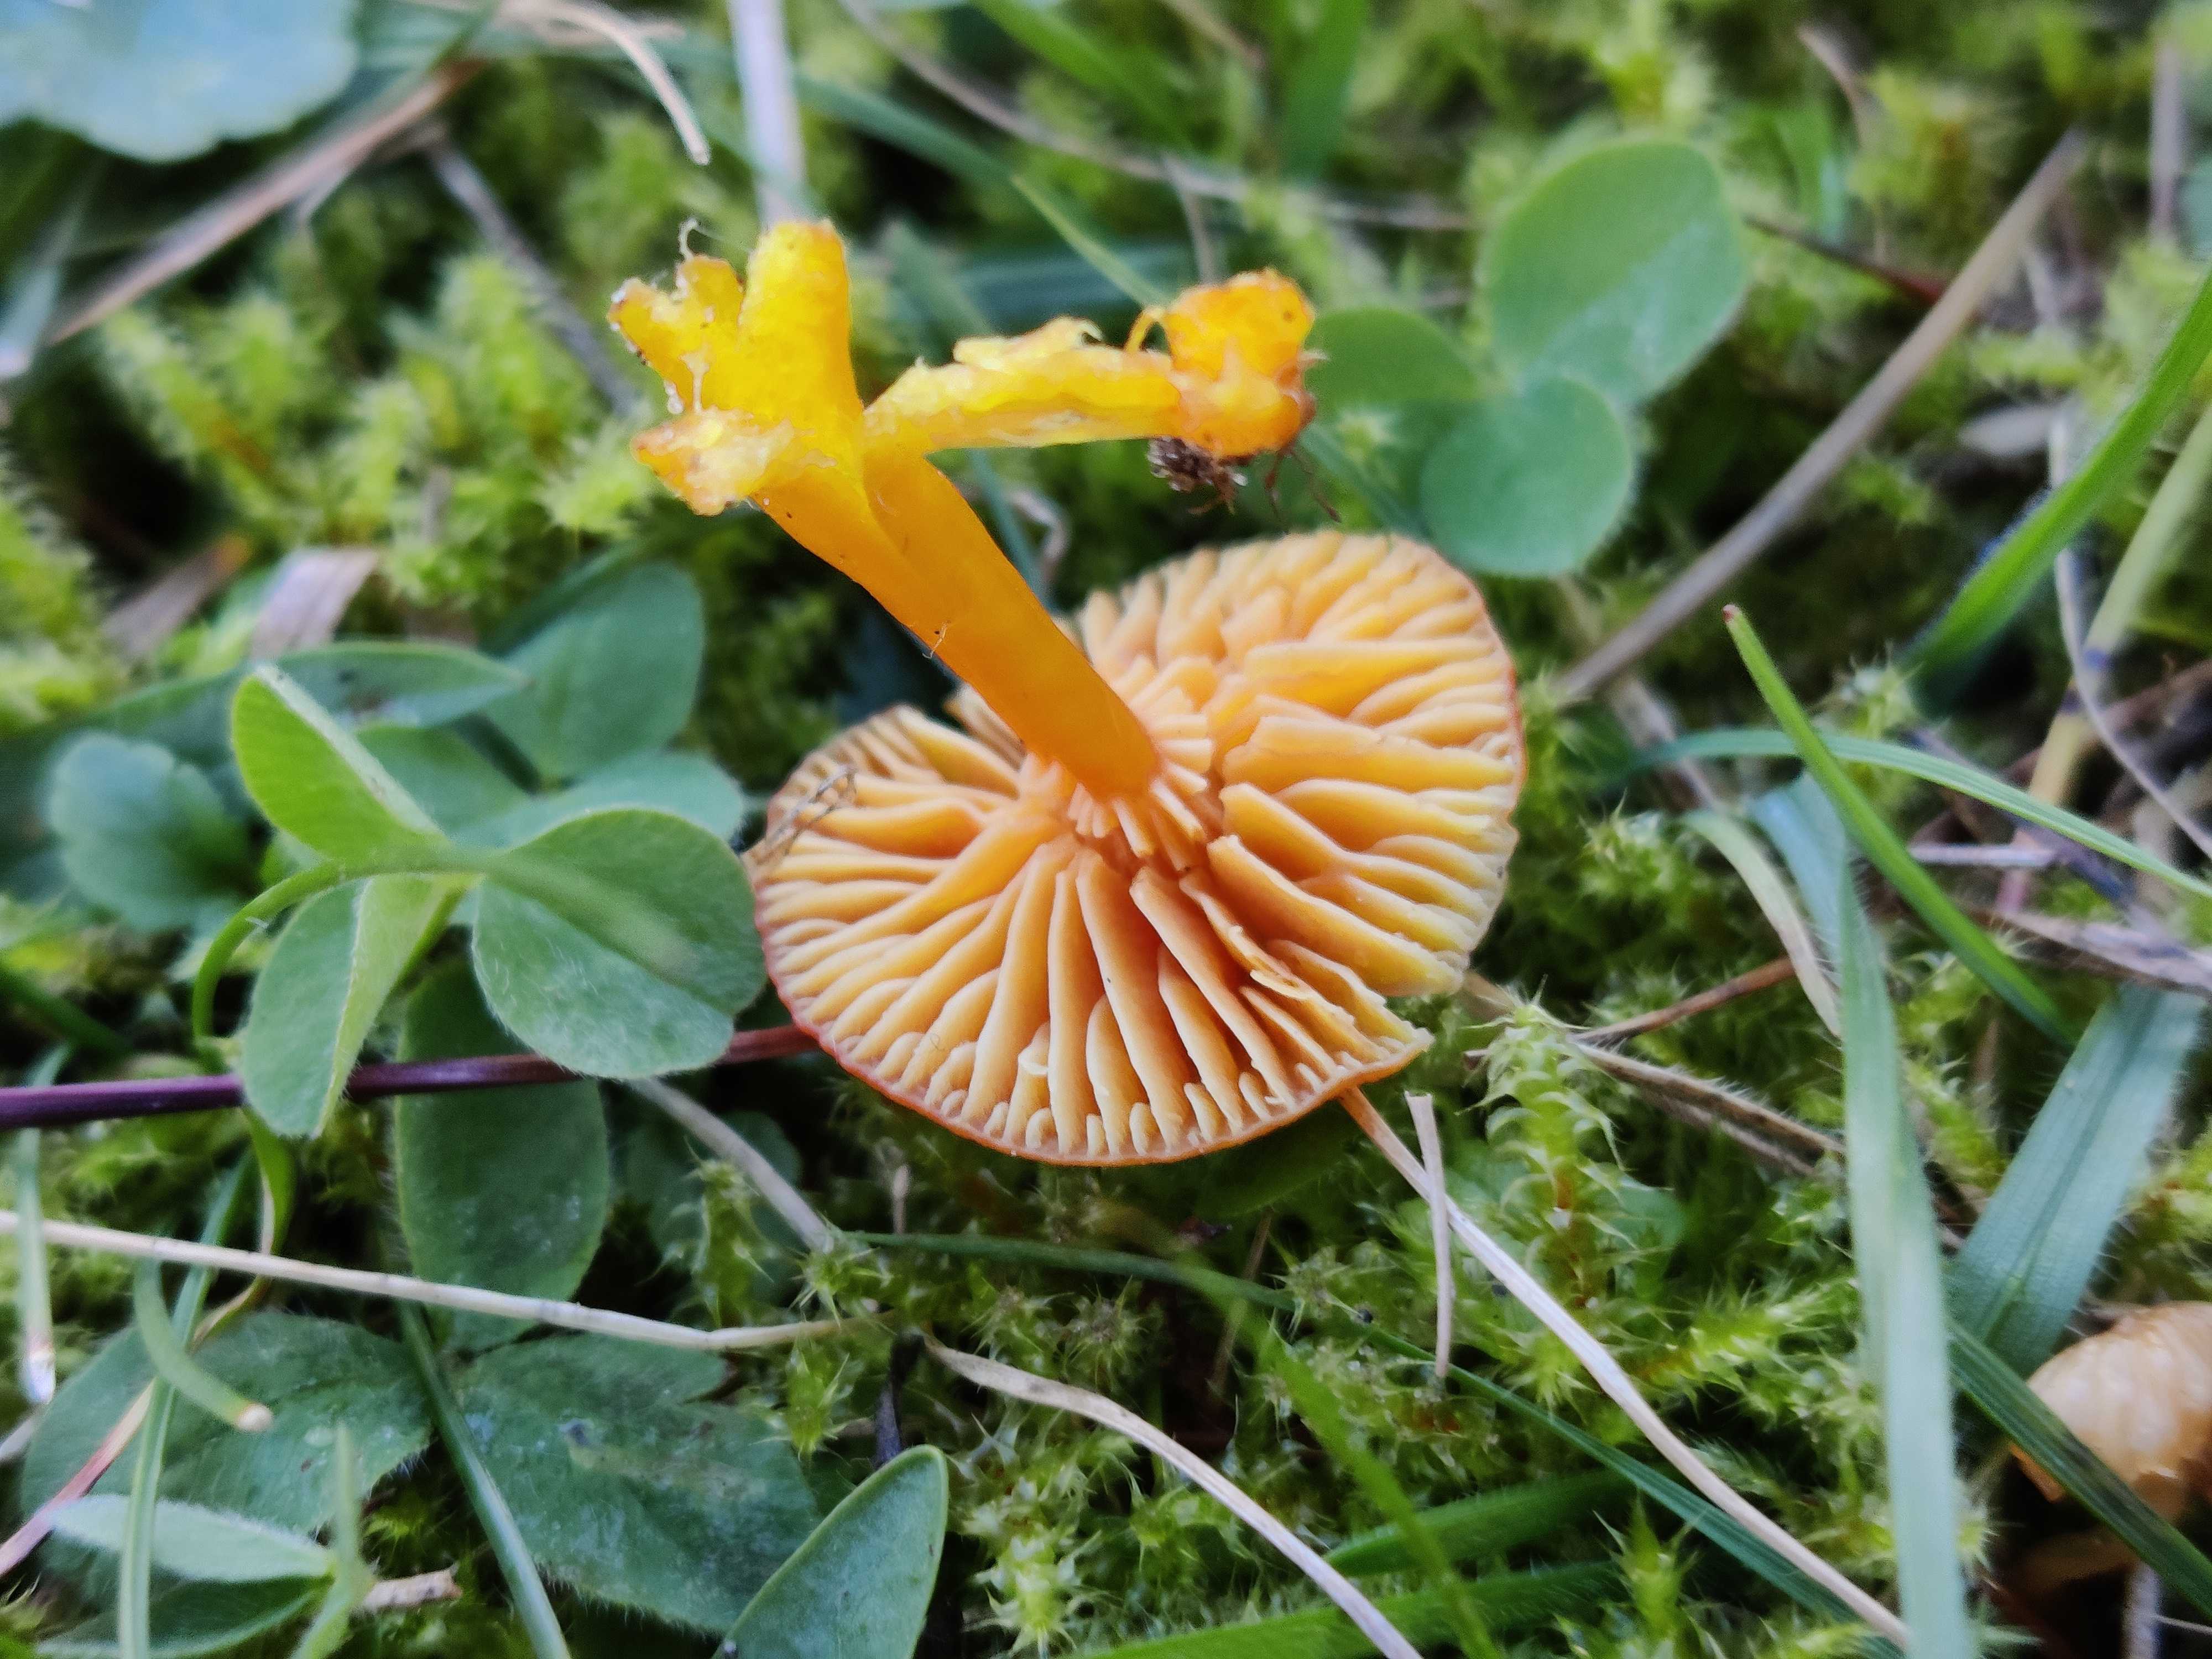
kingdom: Fungi
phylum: Basidiomycota
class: Agaricomycetes
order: Agaricales
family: Hygrophoraceae
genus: Hygrocybe
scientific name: Hygrocybe
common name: vokshat
